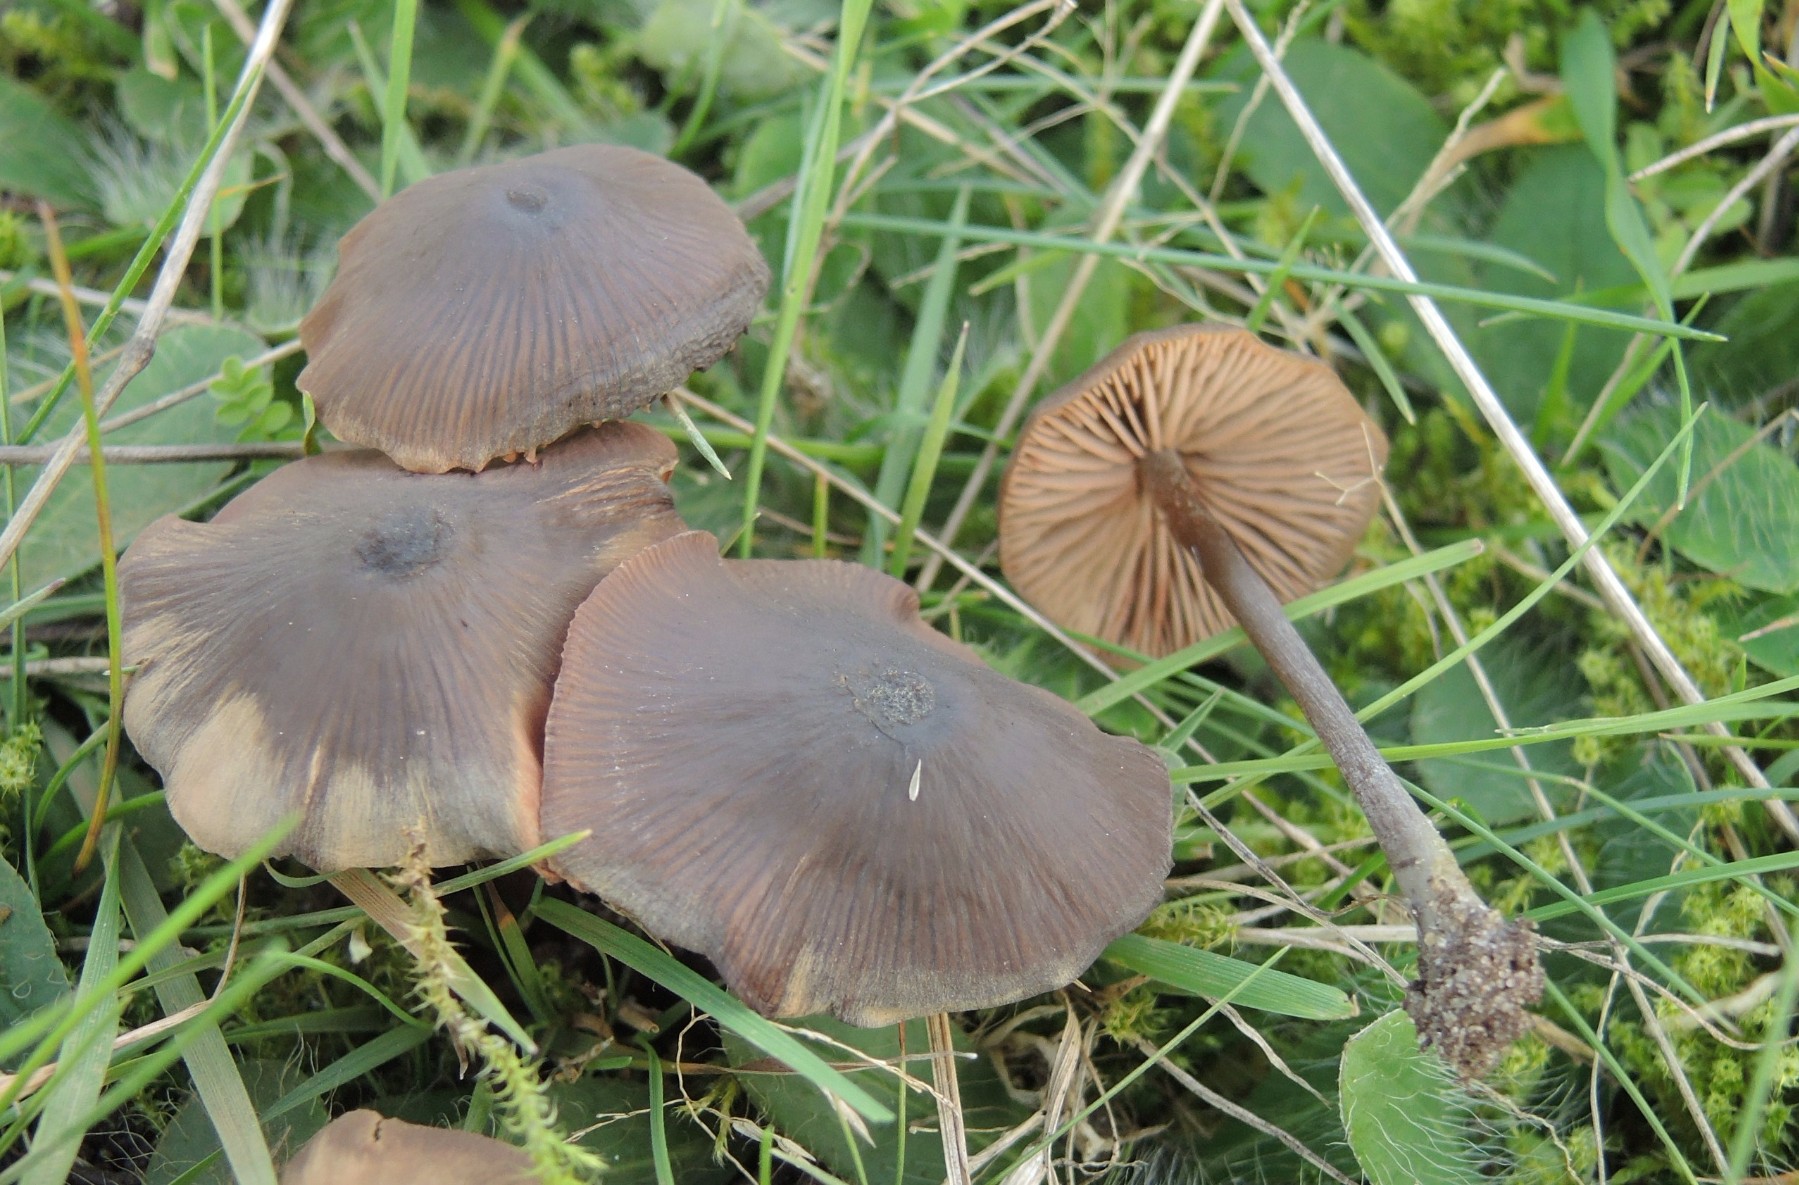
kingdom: Fungi
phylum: Basidiomycota
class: Agaricomycetes
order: Agaricales
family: Entolomataceae
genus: Entoloma
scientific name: Entoloma clandestinum
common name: tykbladet rødblad
